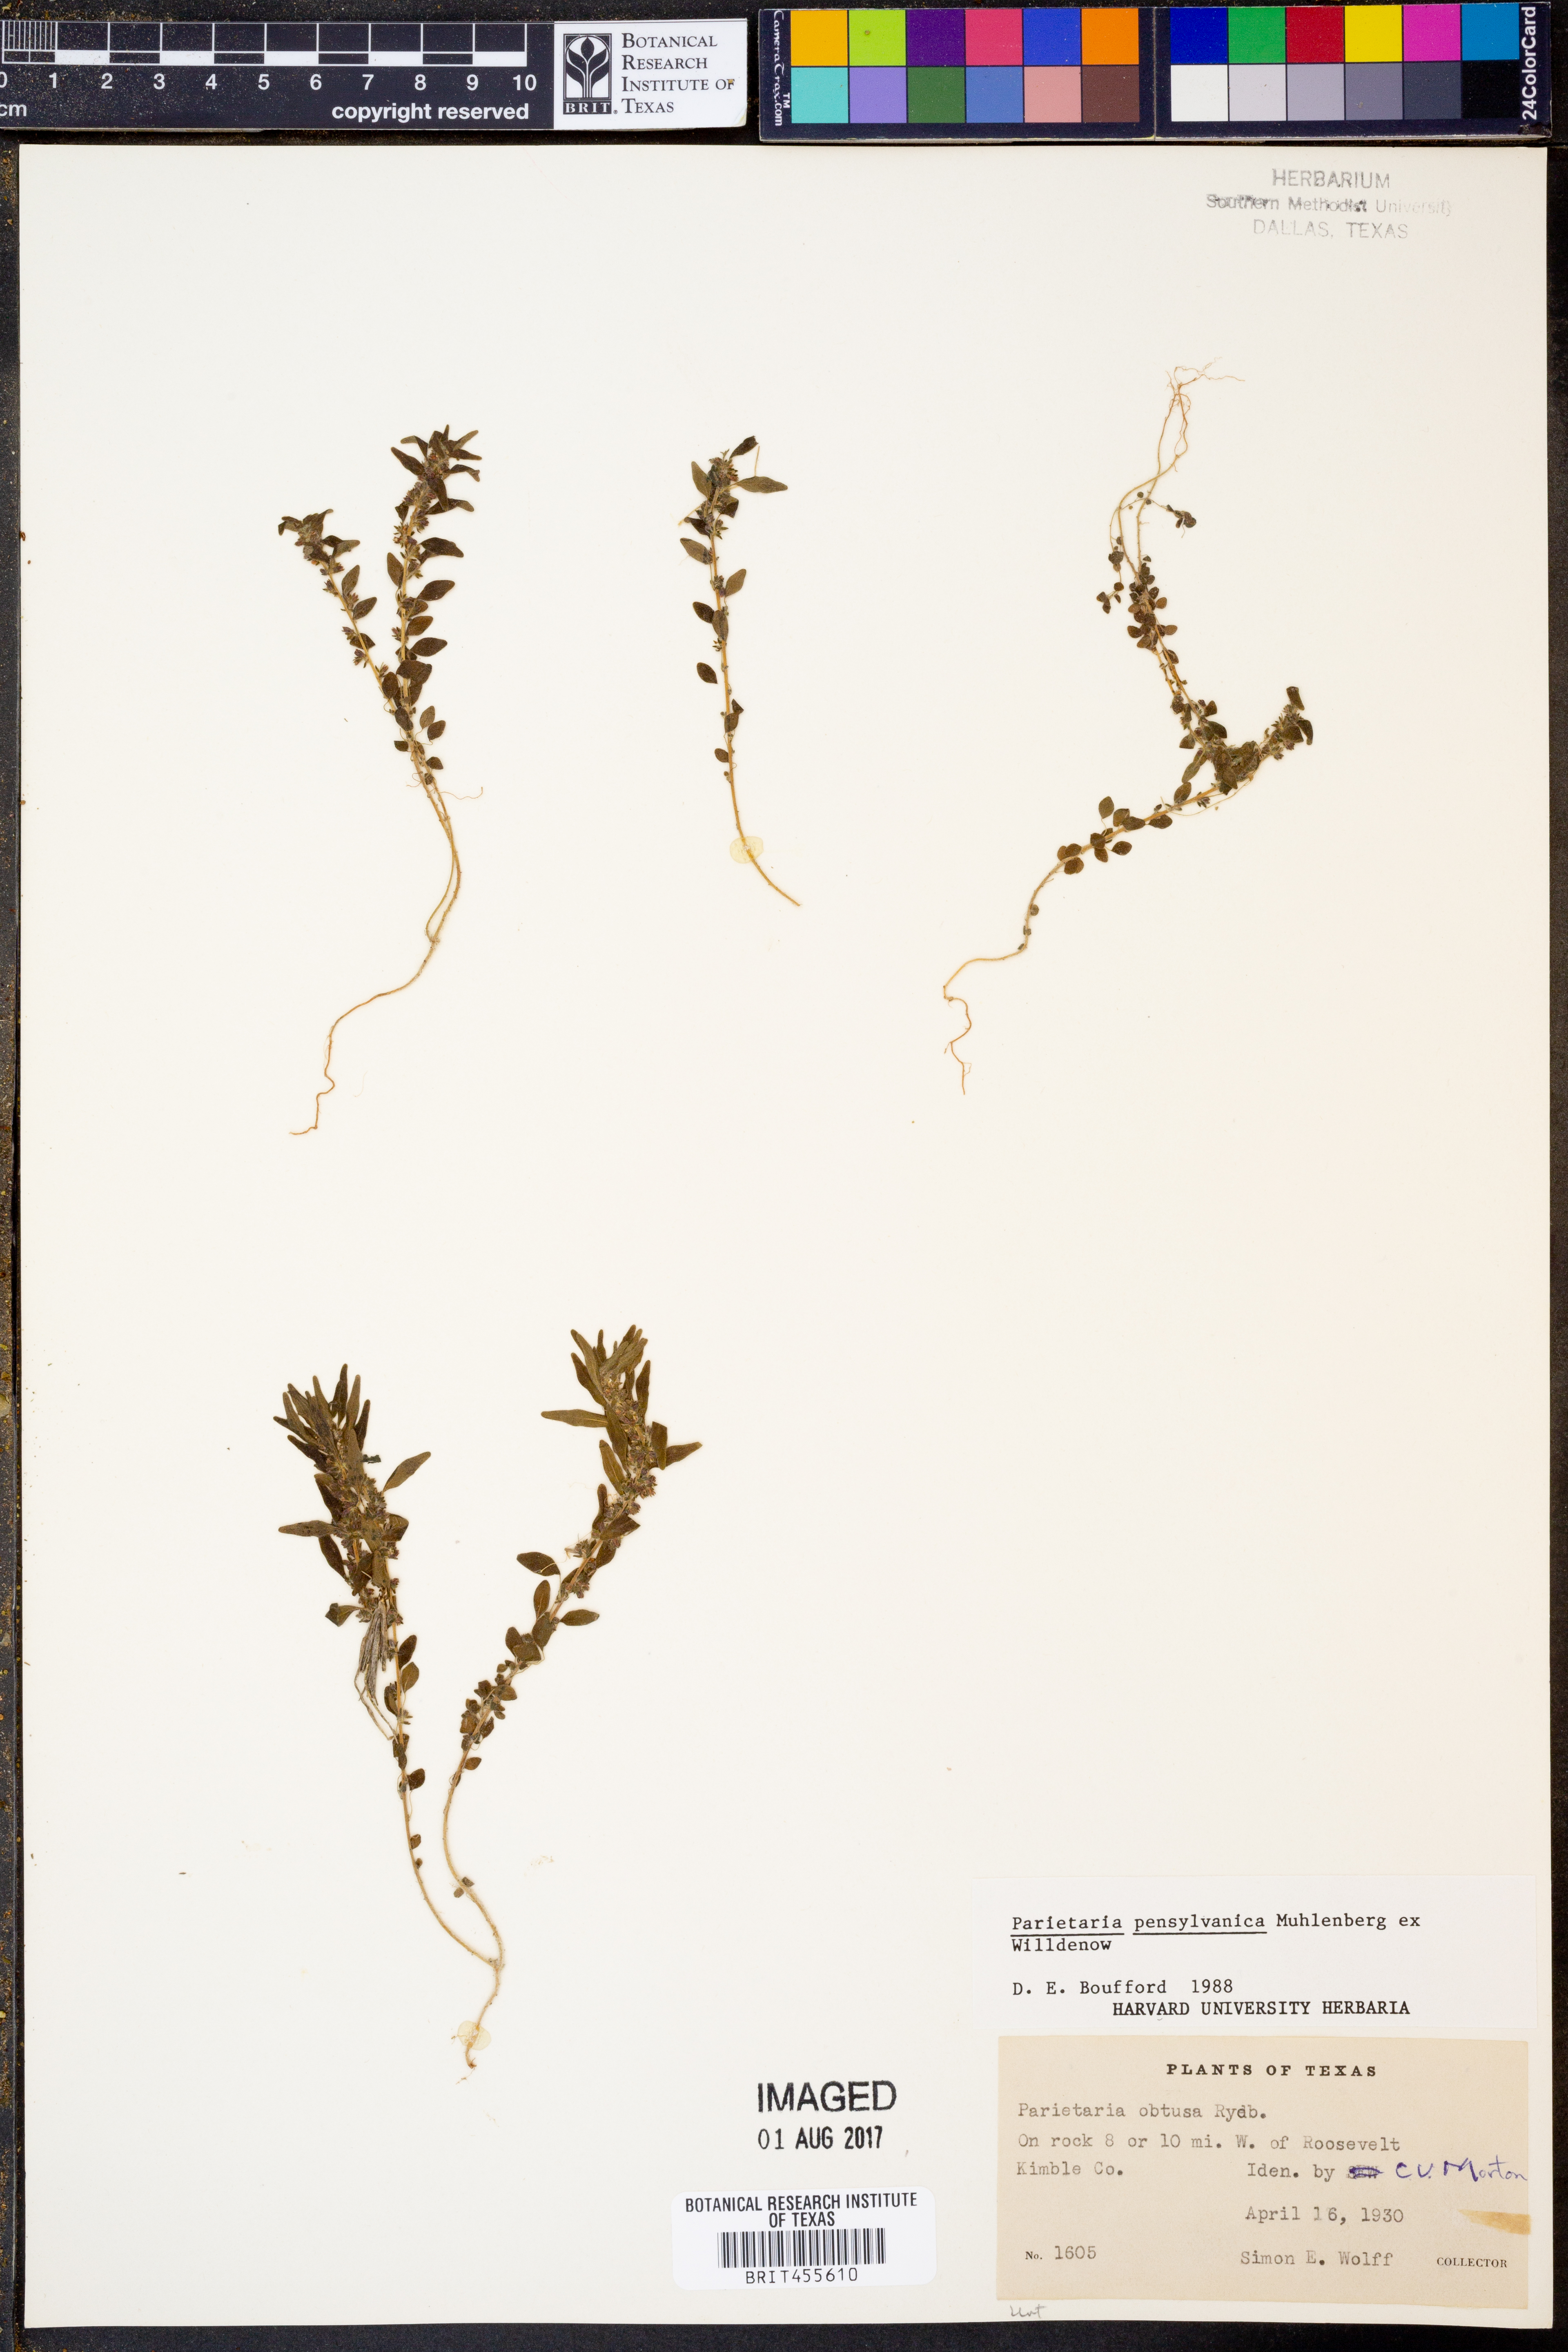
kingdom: Plantae
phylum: Tracheophyta
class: Magnoliopsida
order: Rosales
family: Urticaceae
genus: Parietaria
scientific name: Parietaria pensylvanica
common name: Pennsylvania pellitory
